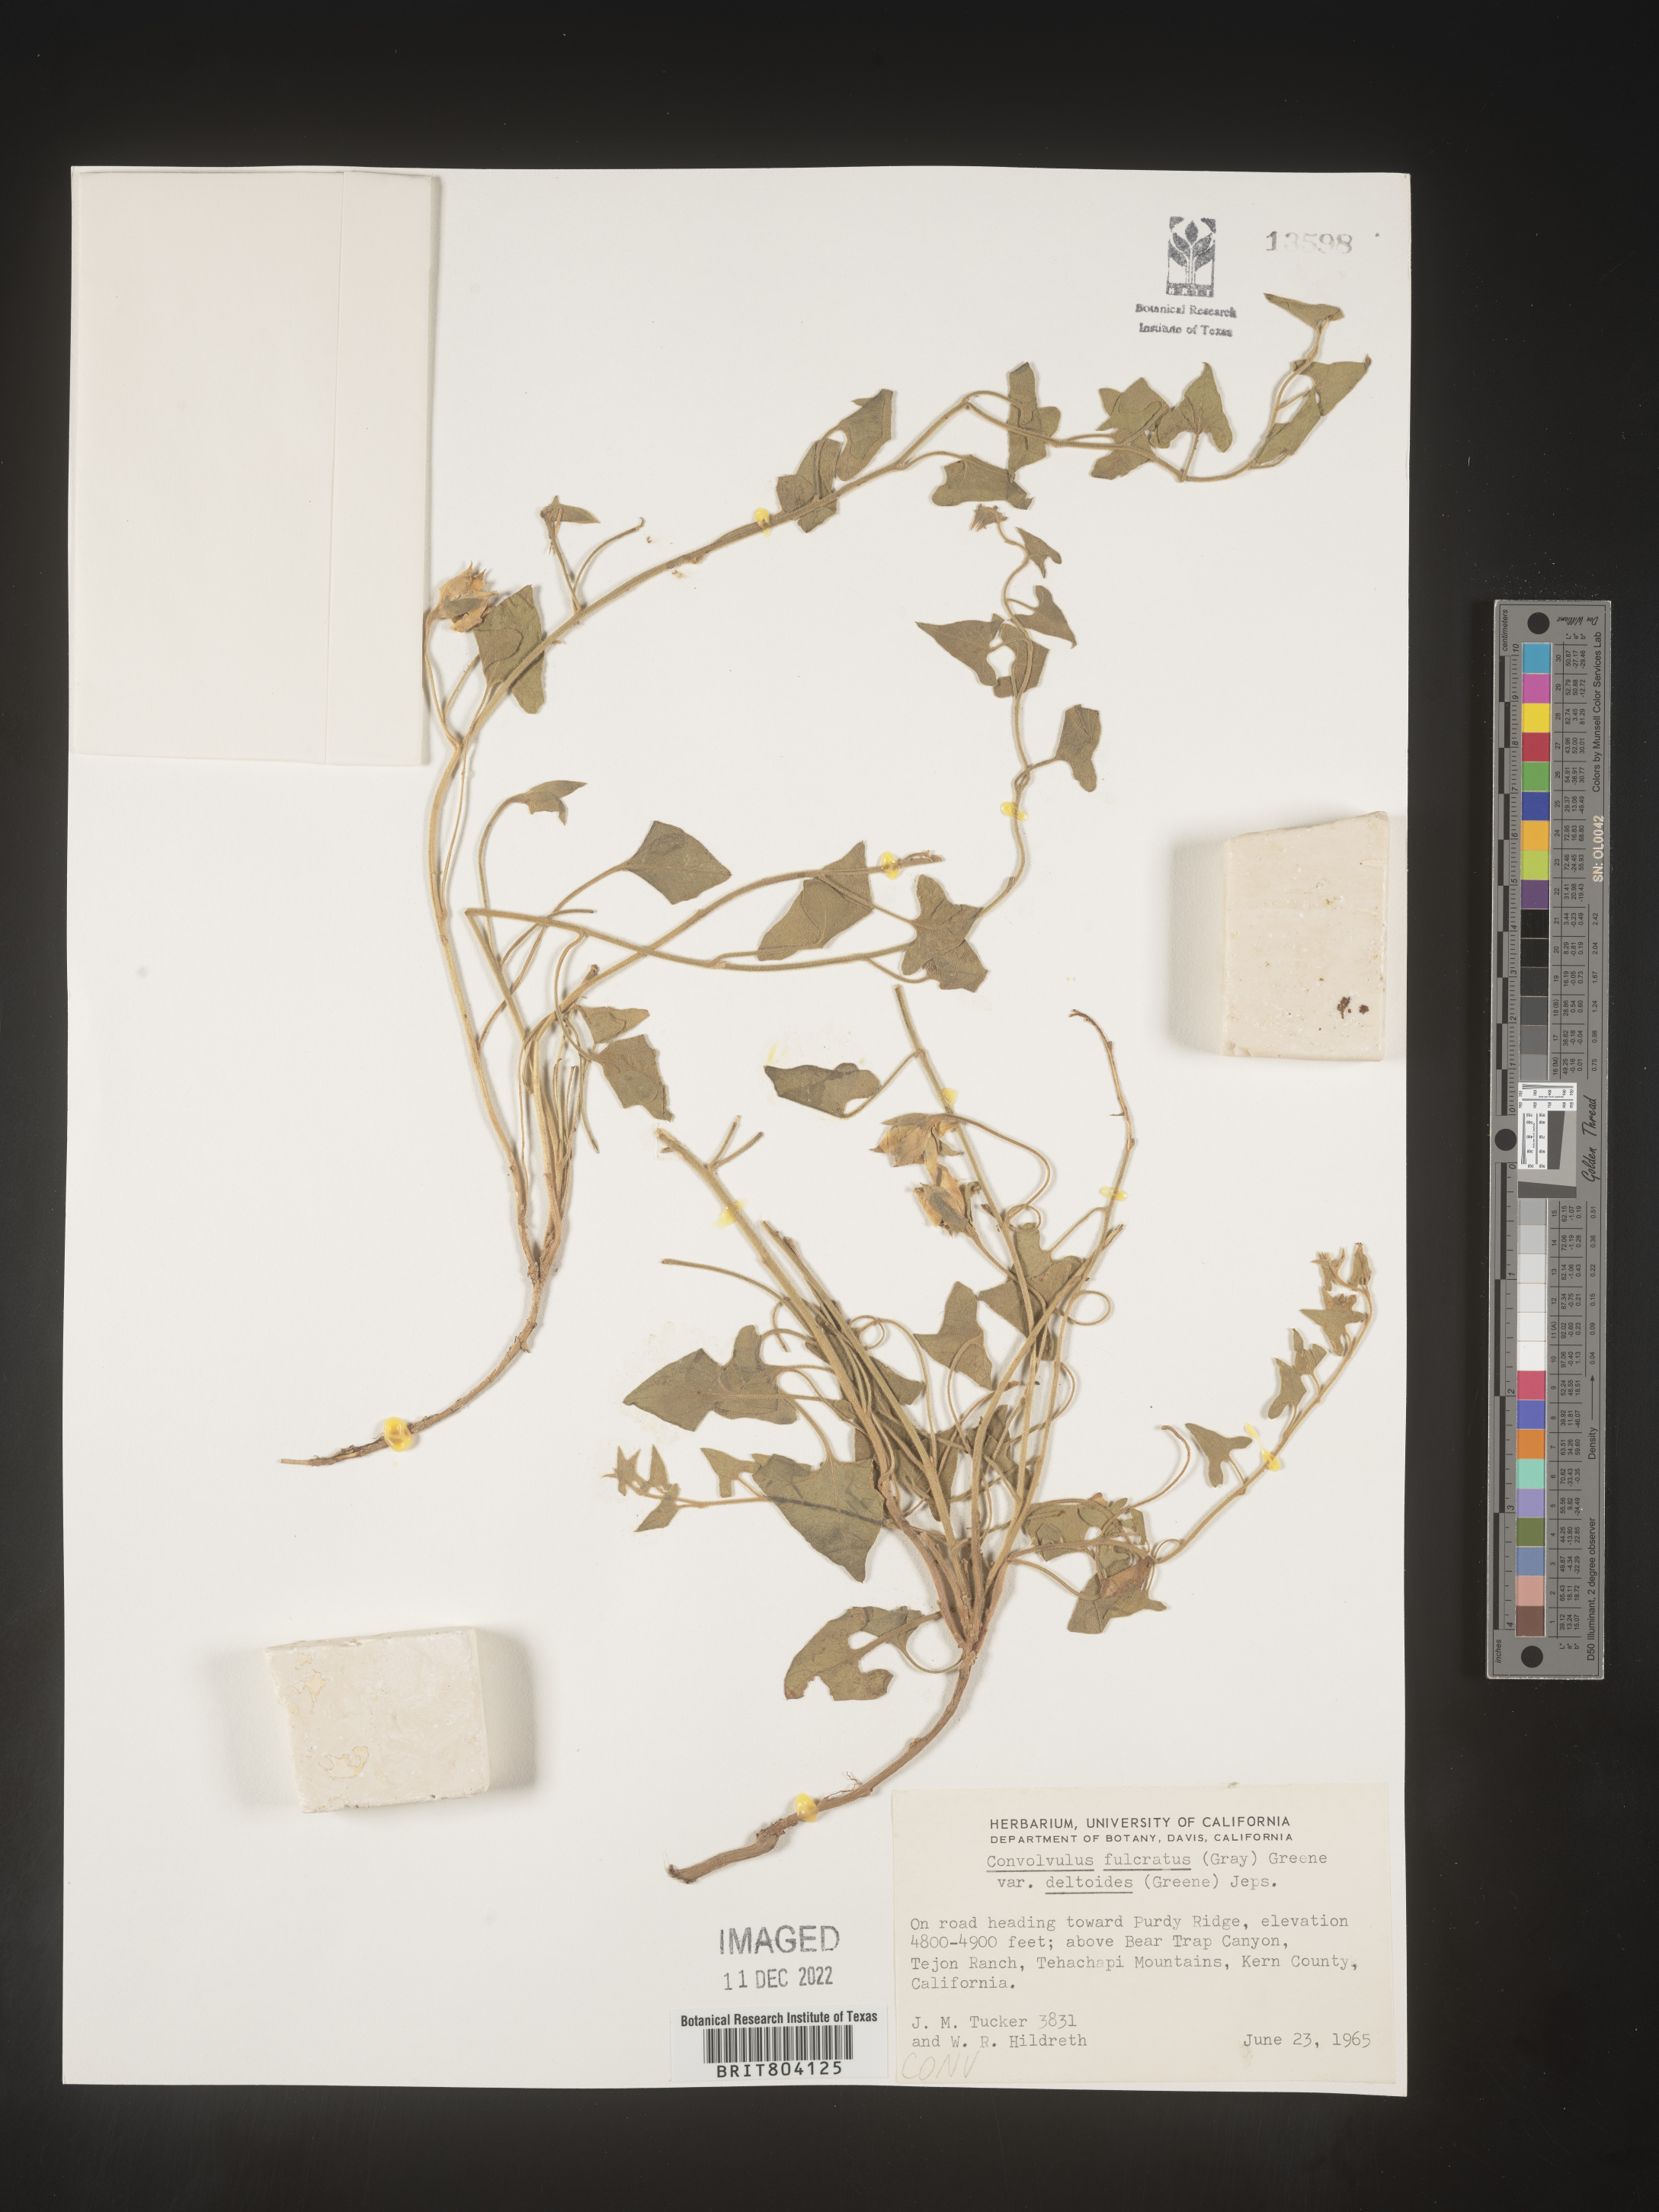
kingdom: Plantae
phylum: Tracheophyta
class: Magnoliopsida
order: Solanales
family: Convolvulaceae
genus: Convolvulus
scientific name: Convolvulus
